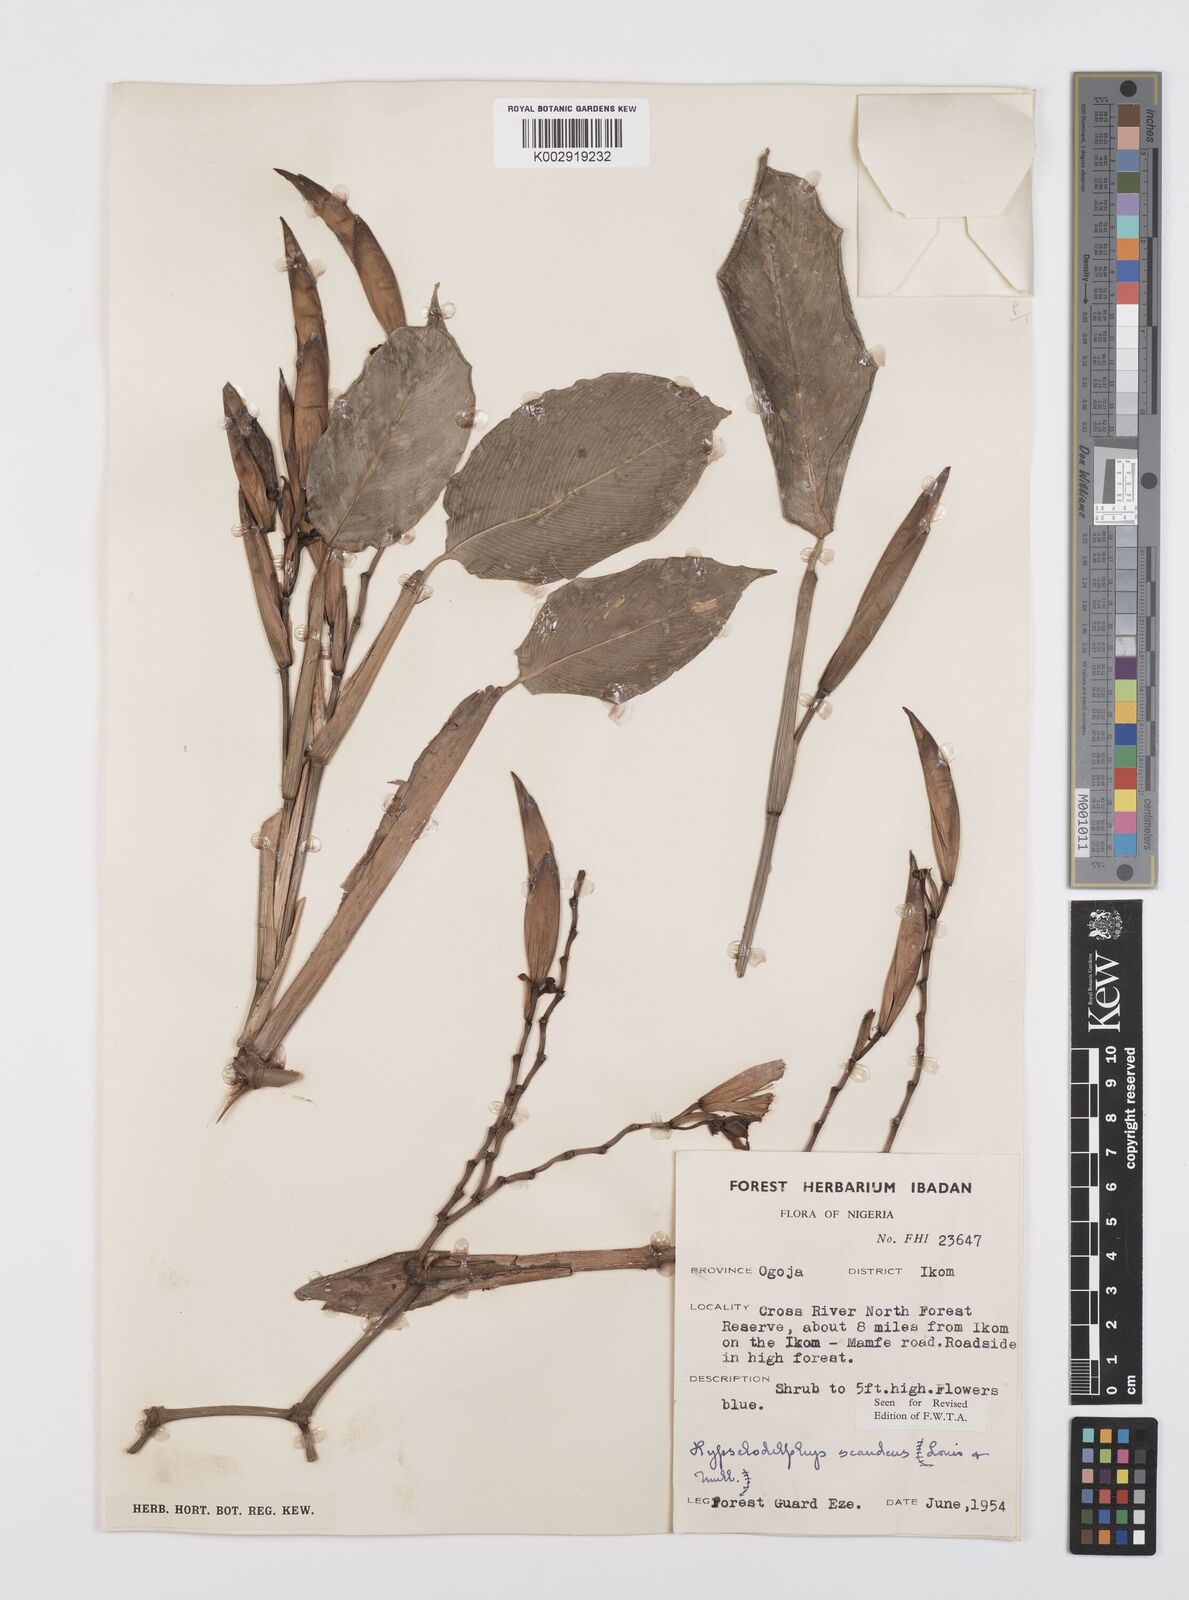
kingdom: Plantae
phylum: Tracheophyta
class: Liliopsida
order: Zingiberales
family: Marantaceae
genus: Hypselodelphys
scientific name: Hypselodelphys scandens
